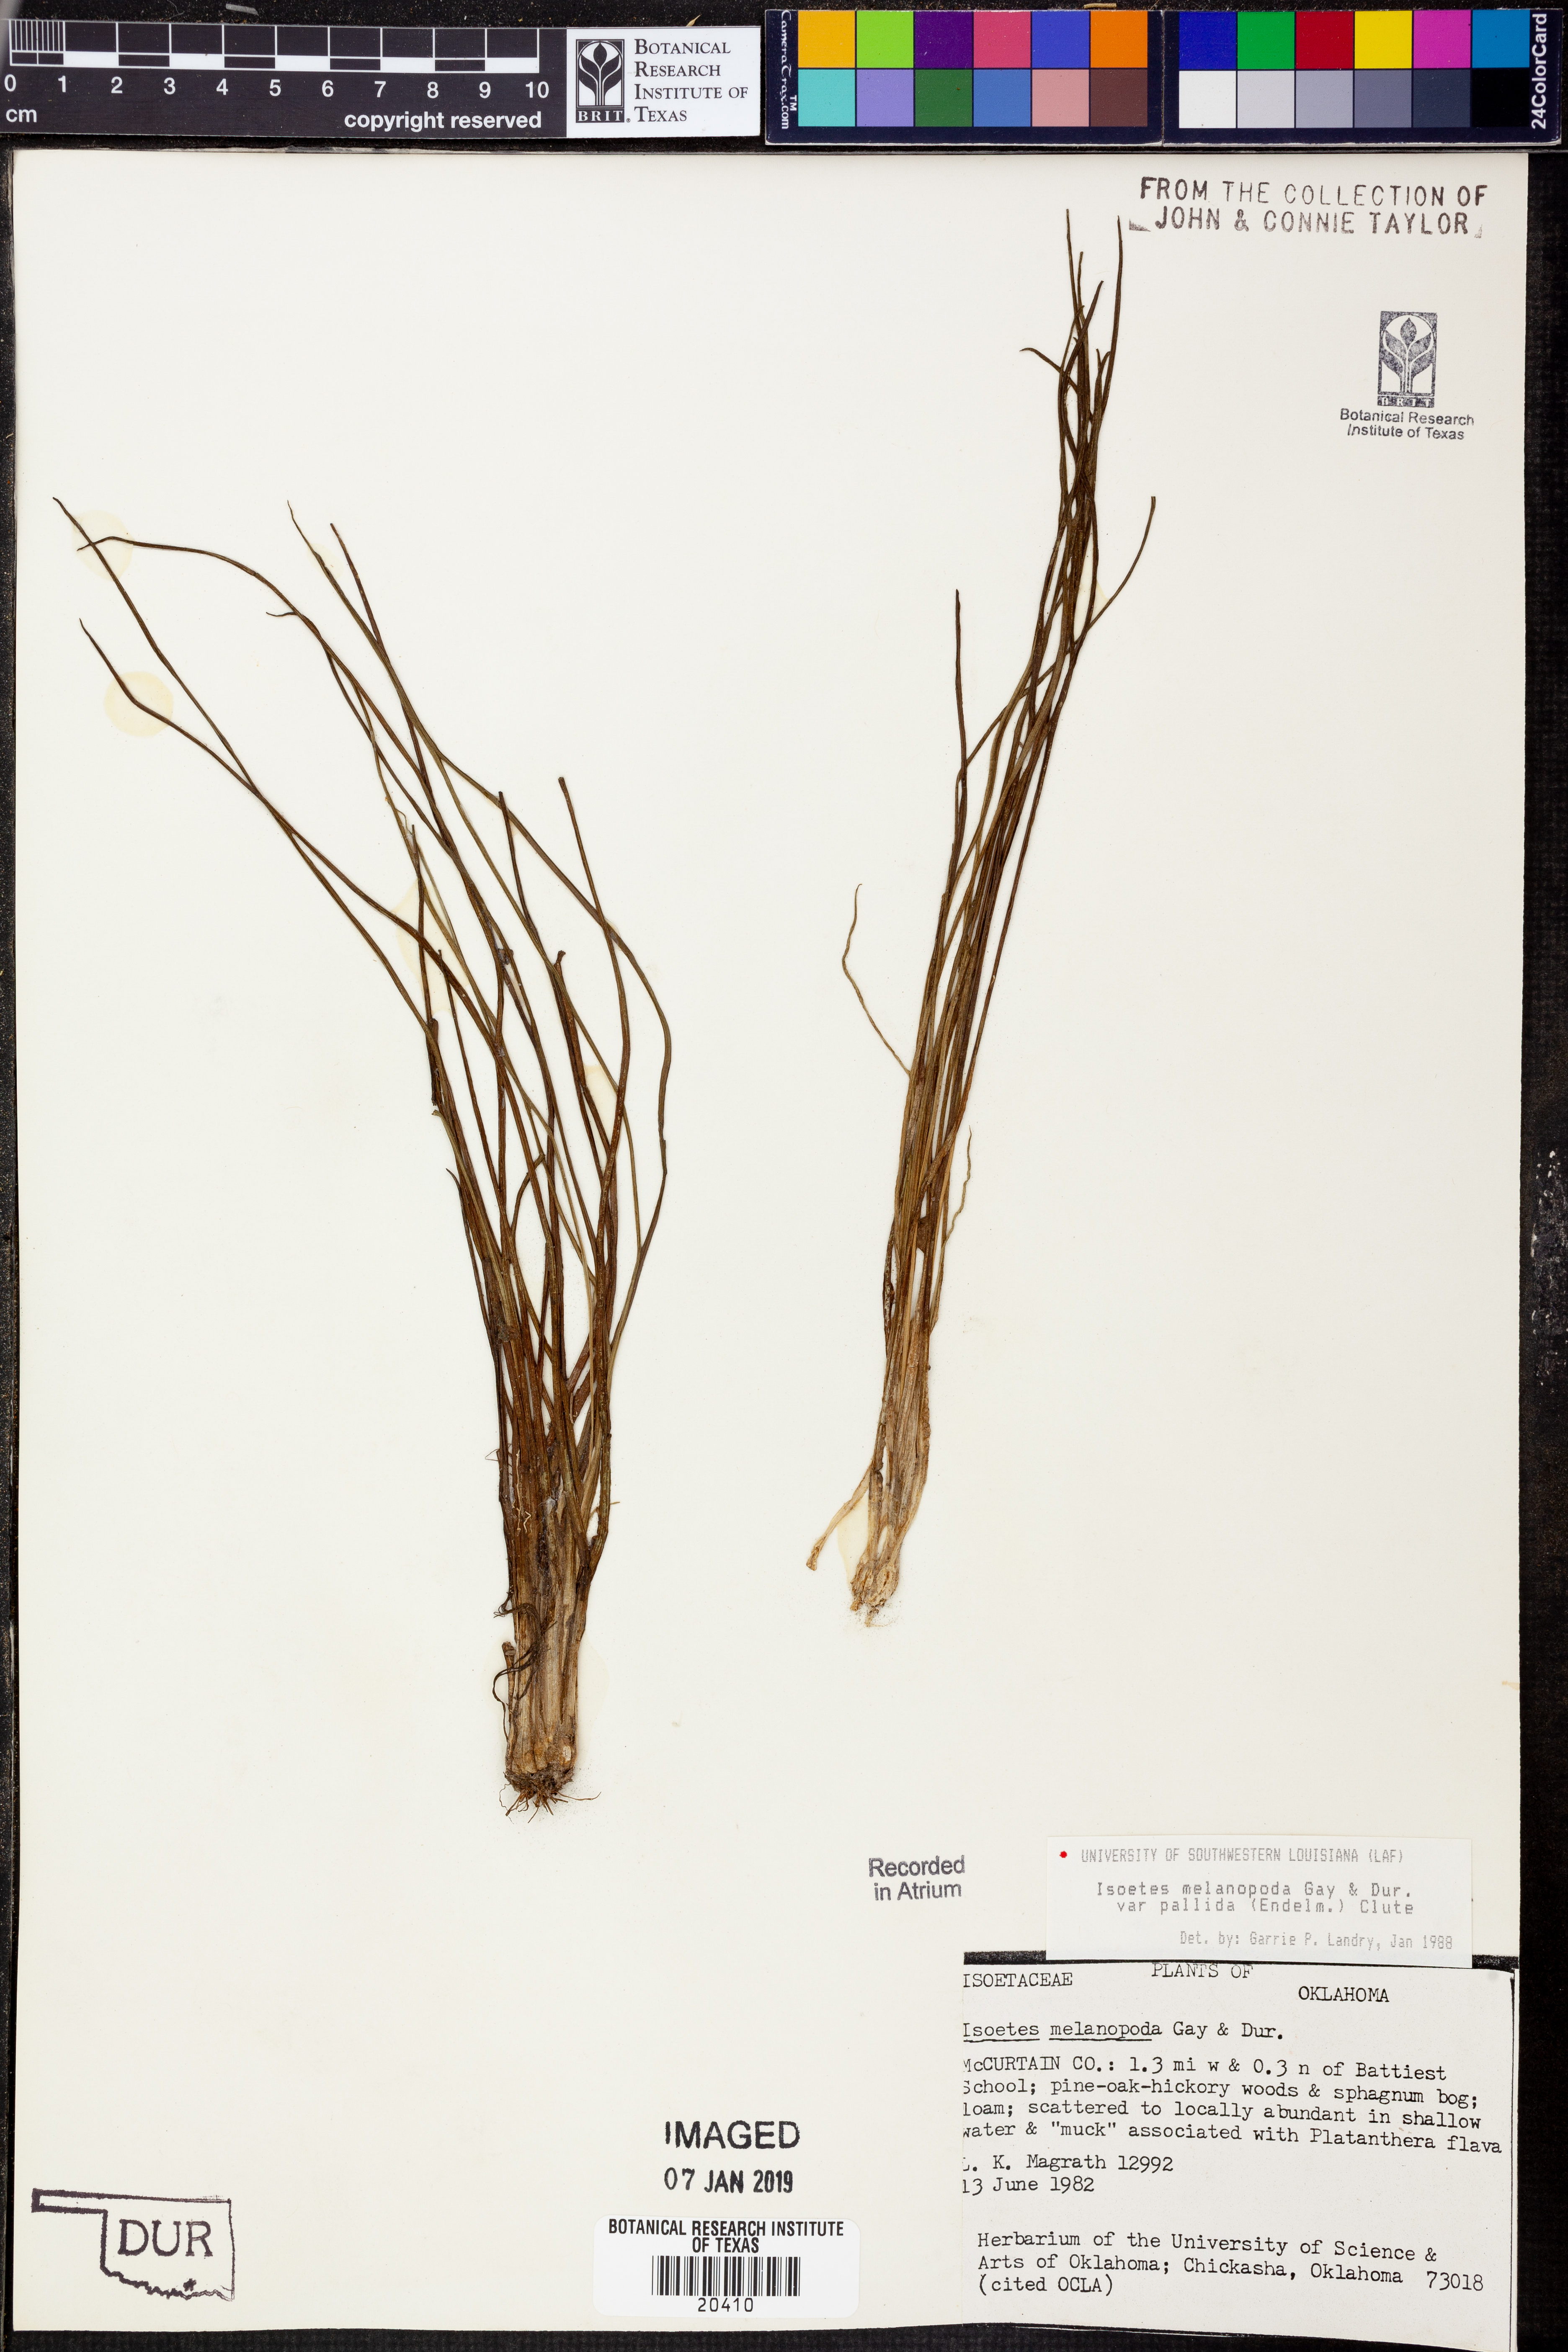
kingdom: Plantae
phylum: Tracheophyta
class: Lycopodiopsida
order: Isoetales
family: Isoetaceae
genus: Isoetes
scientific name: Isoetes melanopoda
